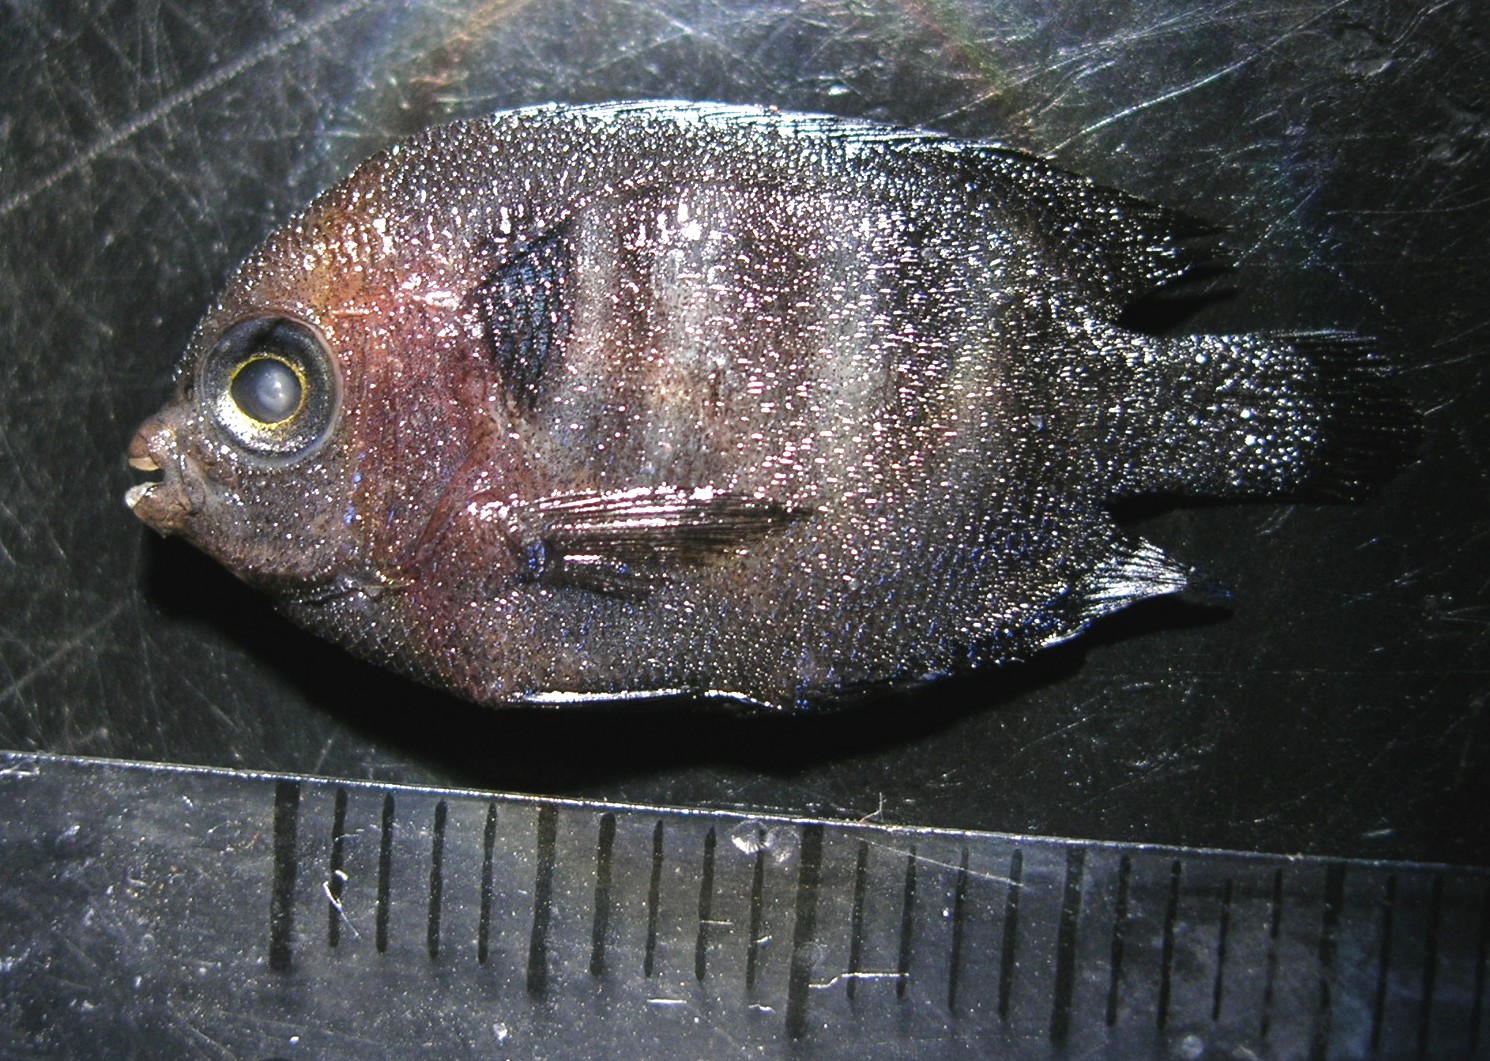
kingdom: Animalia
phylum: Chordata
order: Perciformes
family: Pomacanthidae
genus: Centropyge
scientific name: Centropyge multispinis
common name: Many-spined angelfish
